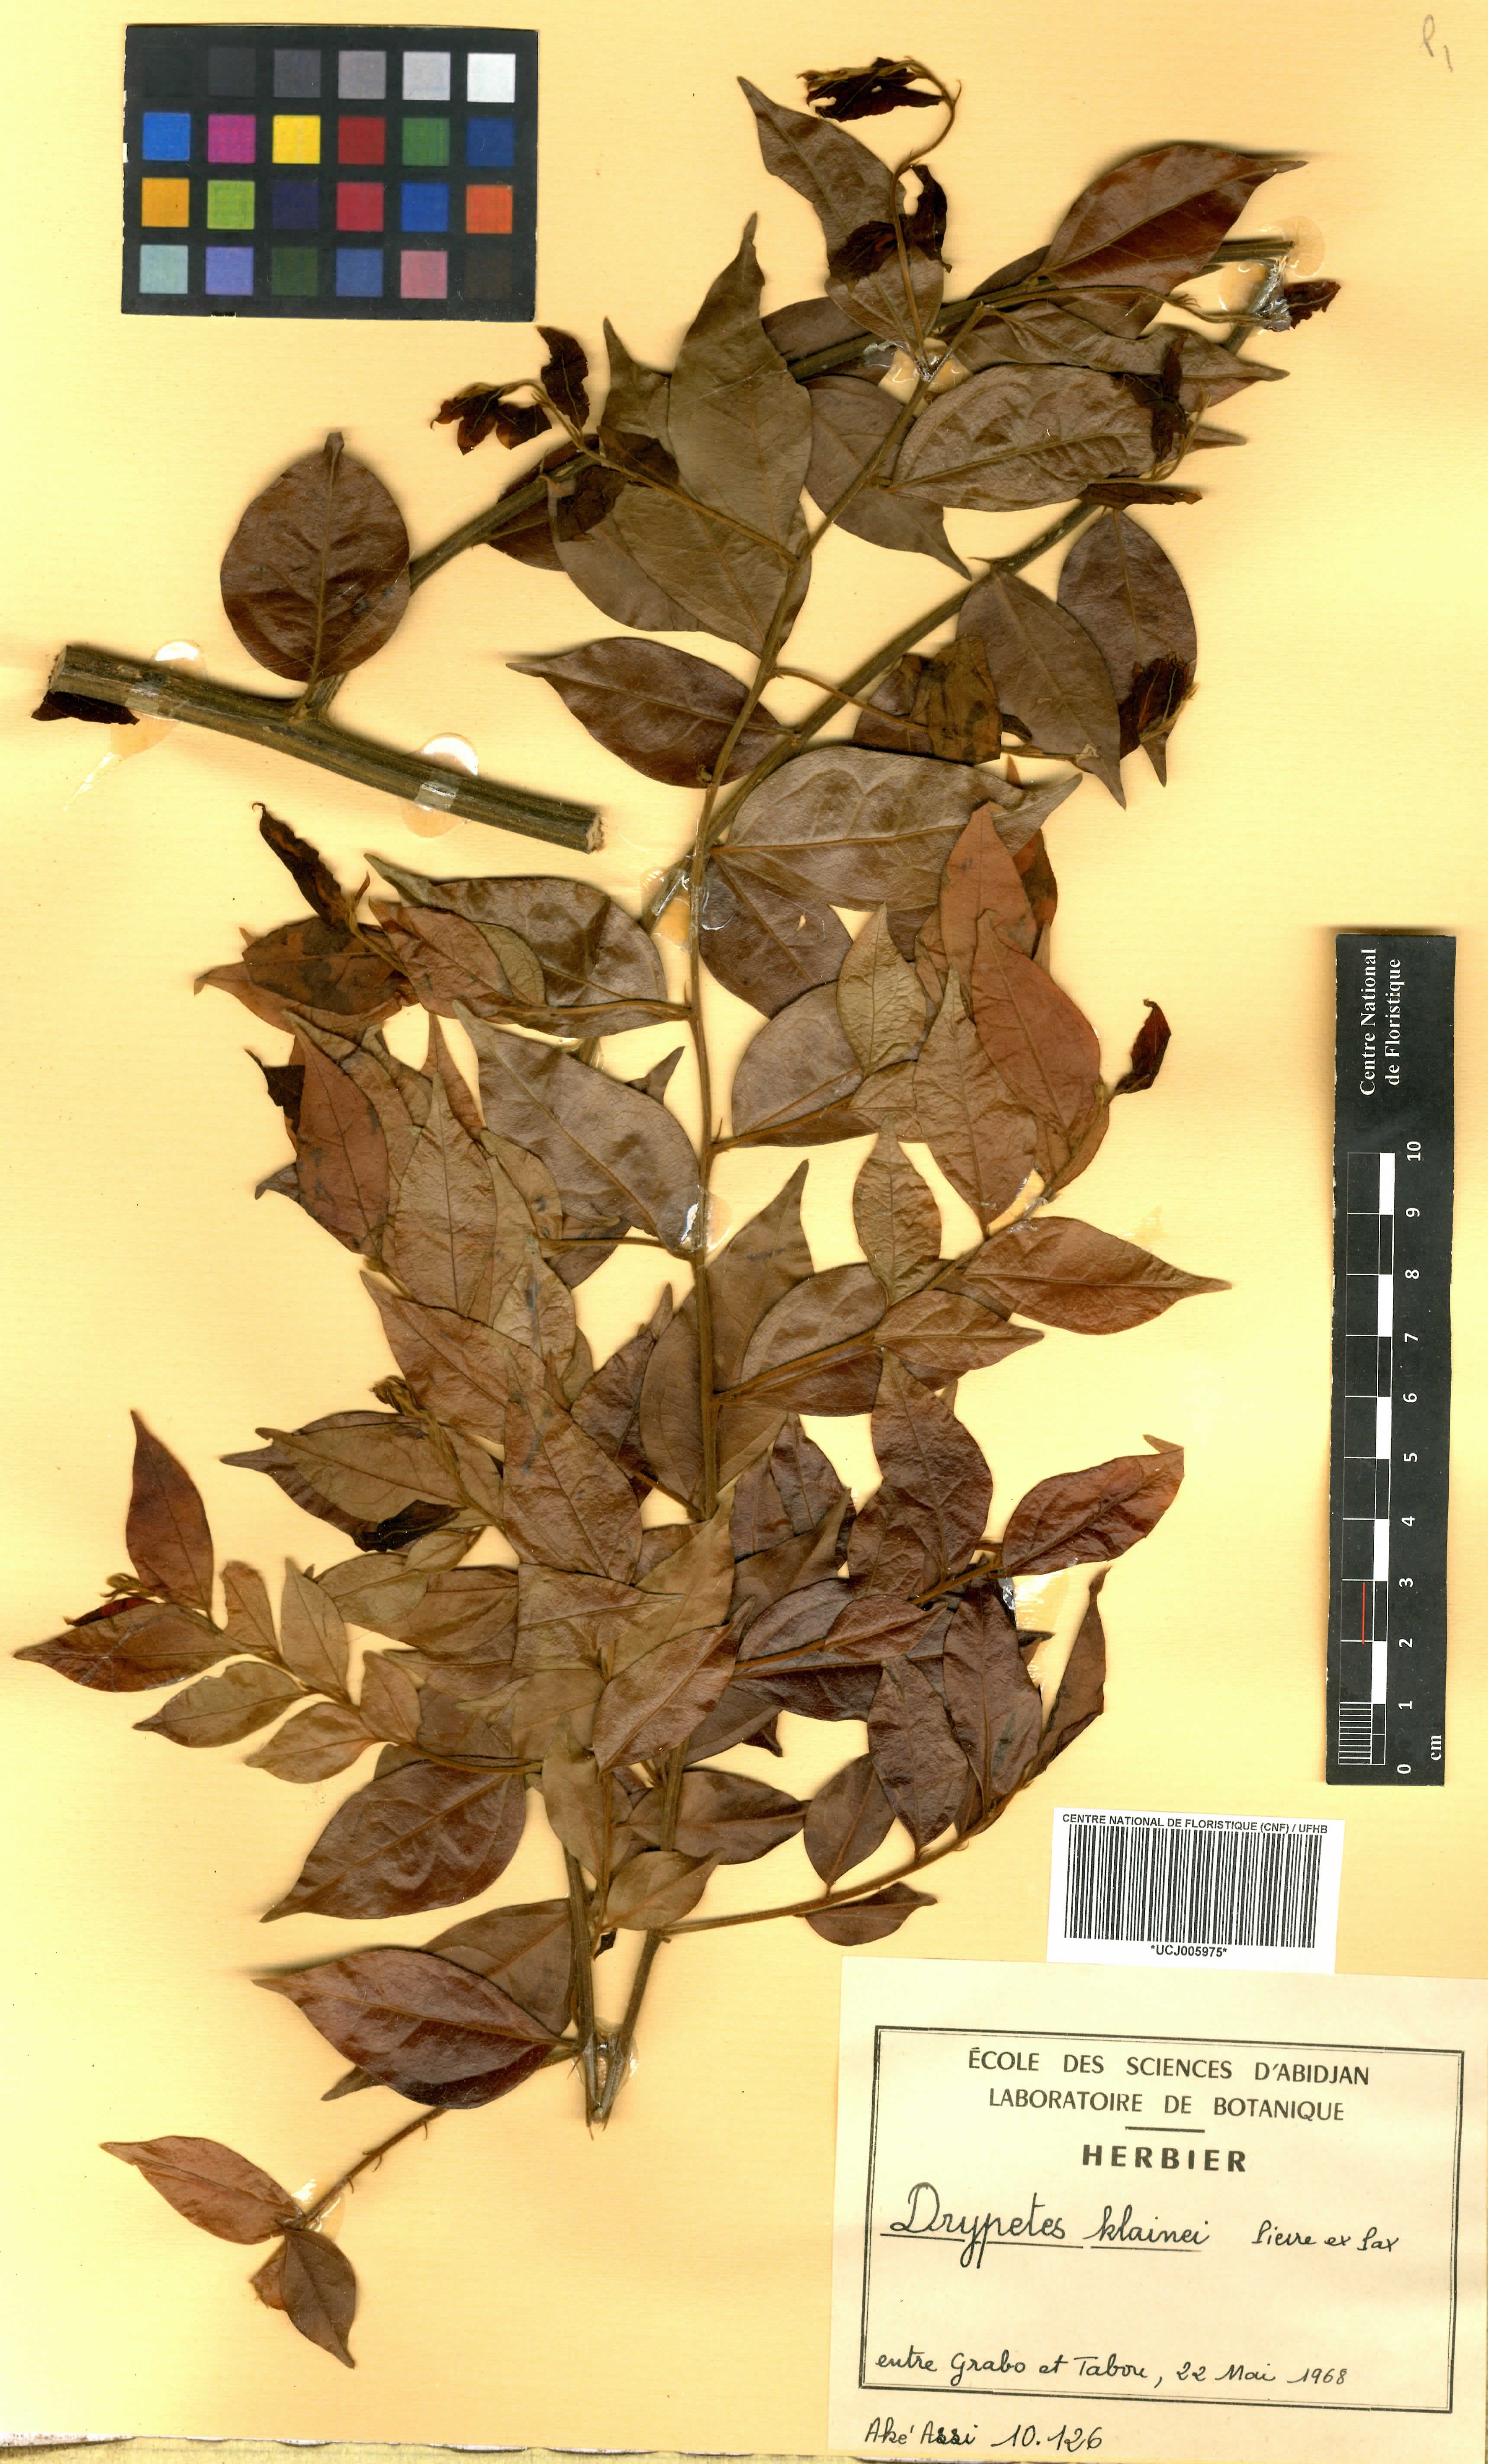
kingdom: Plantae
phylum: Tracheophyta
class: Magnoliopsida
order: Malpighiales
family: Putranjivaceae
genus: Drypetes
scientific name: Drypetes klainei
